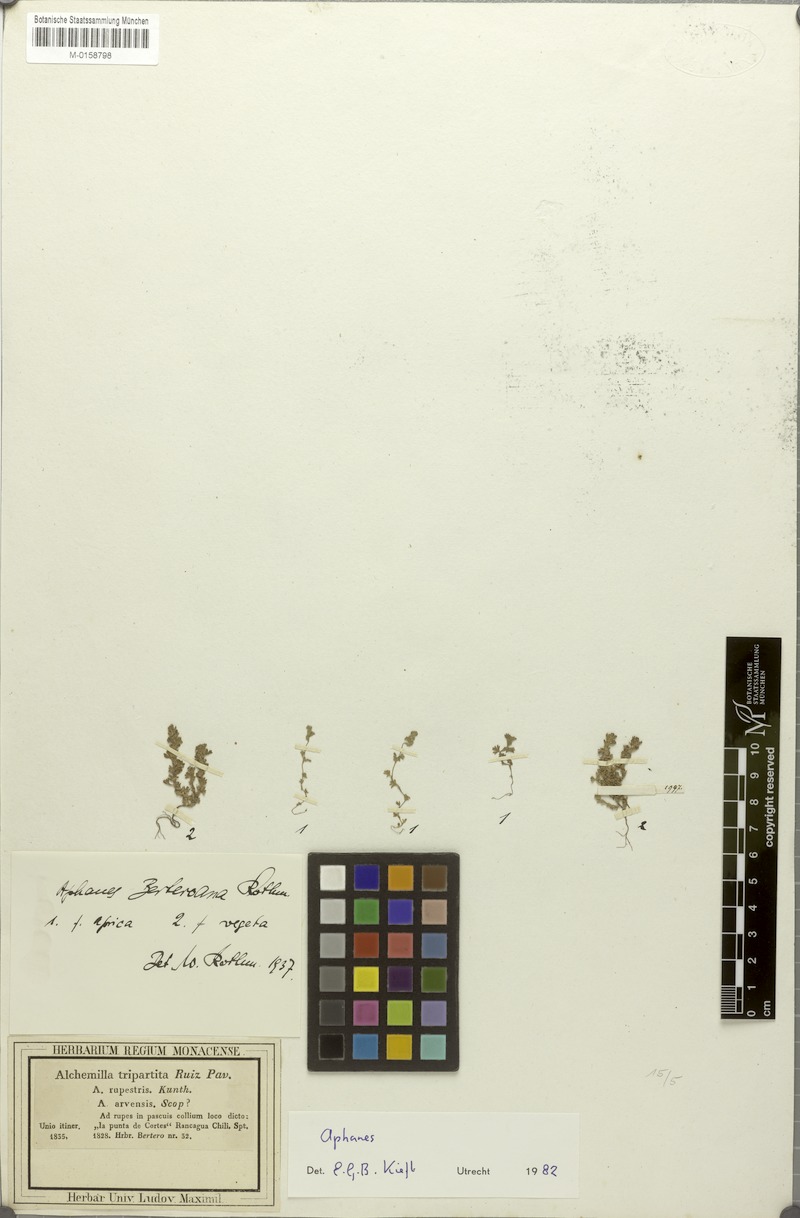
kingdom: Plantae
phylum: Tracheophyta
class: Magnoliopsida
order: Rosales
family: Rosaceae
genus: Aphanes
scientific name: Aphanes berteroana
